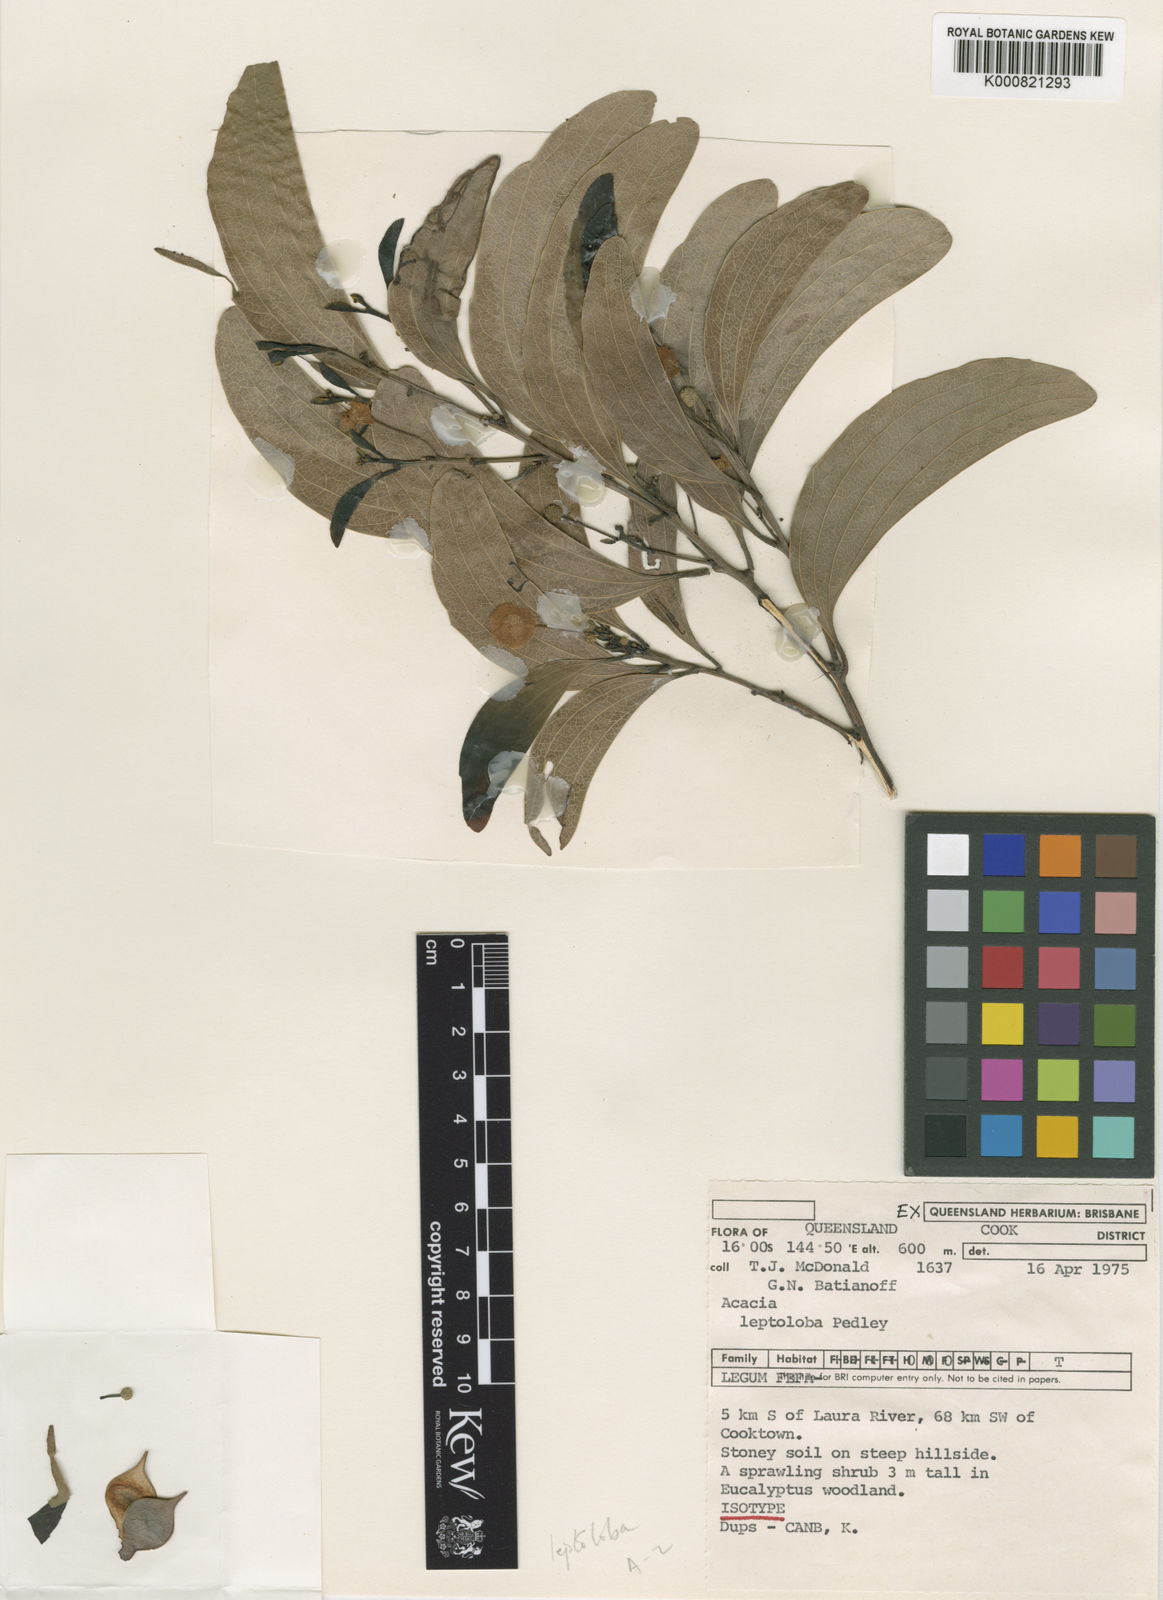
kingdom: Plantae
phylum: Tracheophyta
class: Magnoliopsida
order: Fabales
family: Fabaceae
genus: Acacia
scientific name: Acacia leptoloba
